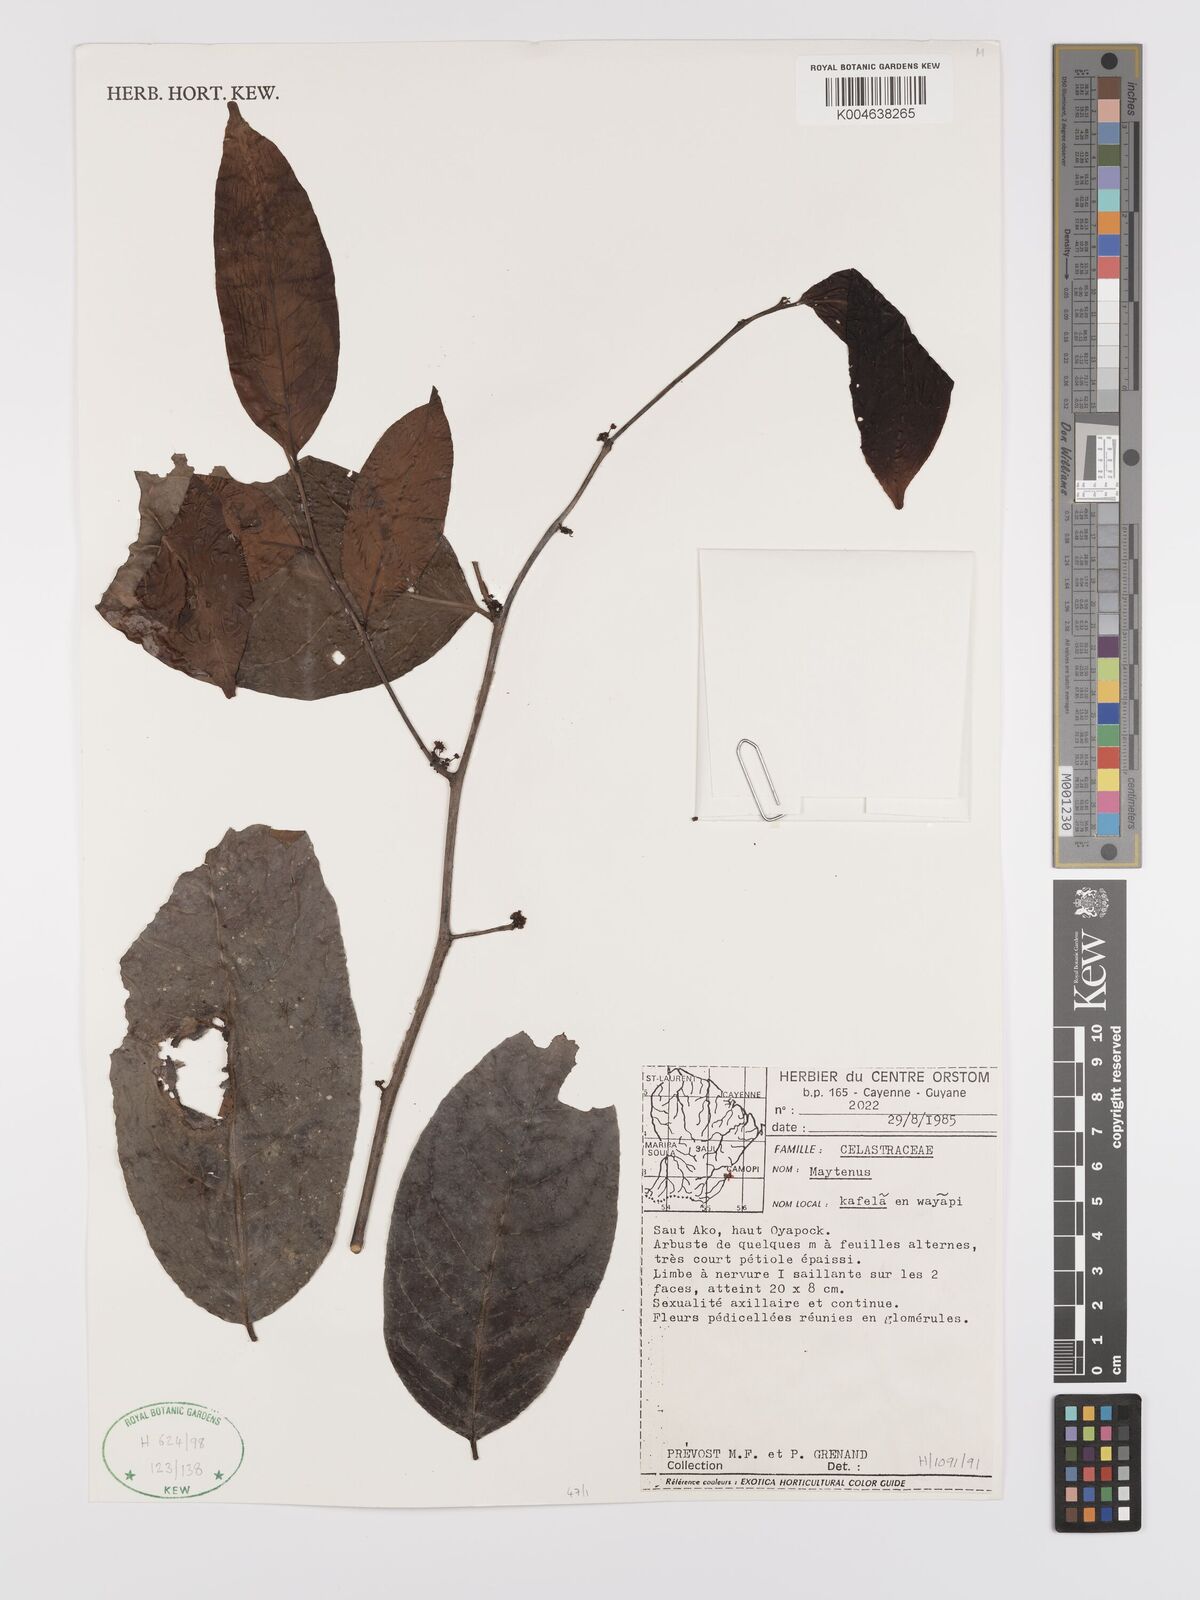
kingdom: Plantae
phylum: Tracheophyta
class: Magnoliopsida
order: Celastrales
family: Celastraceae
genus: Maytenus
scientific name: Maytenus
